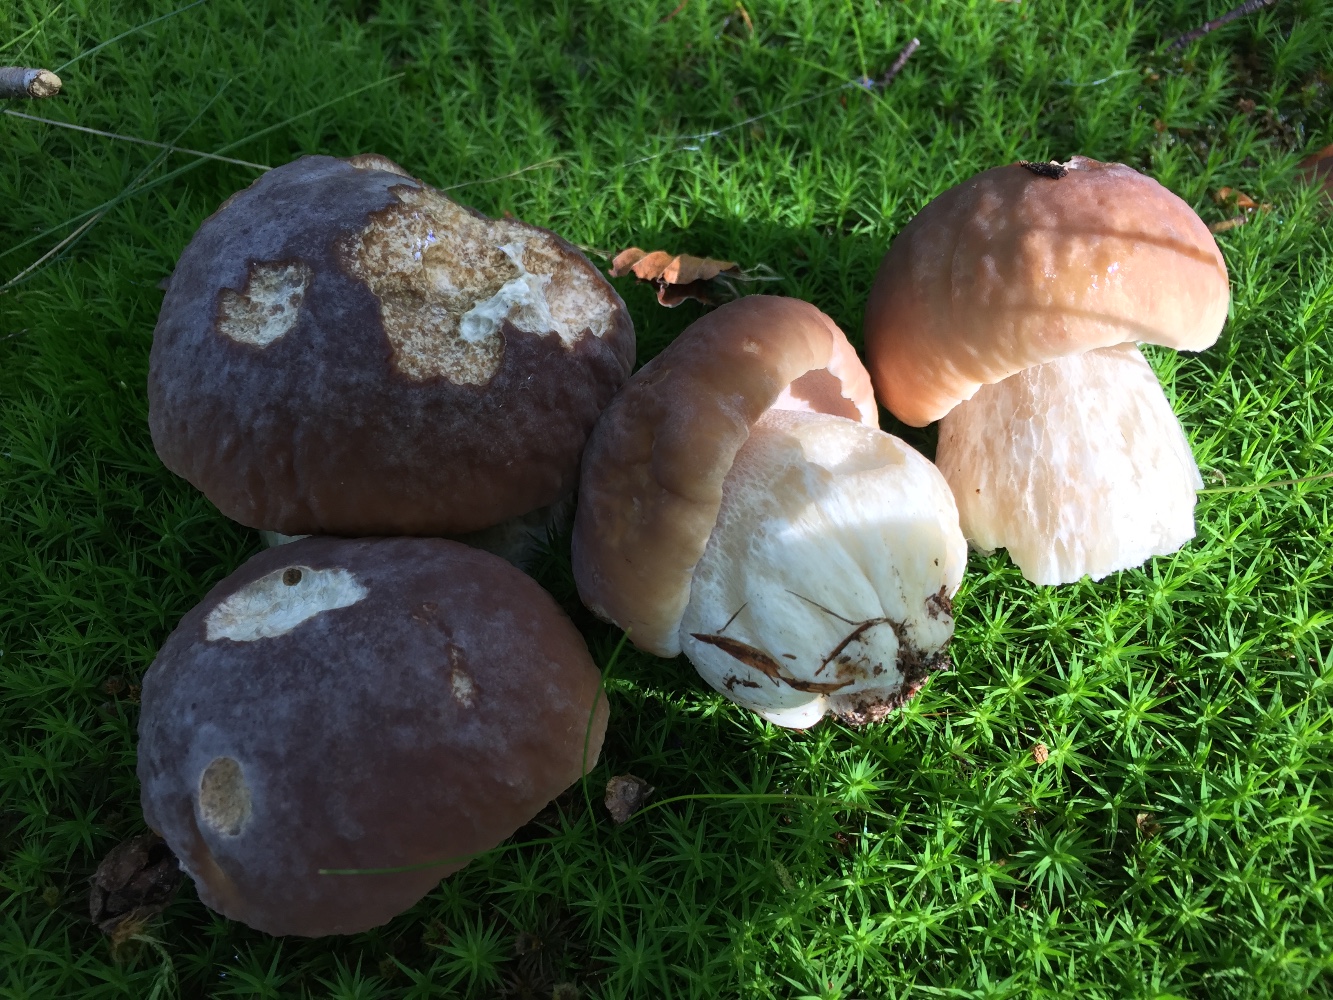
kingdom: Fungi
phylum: Basidiomycota
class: Agaricomycetes
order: Boletales
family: Boletaceae
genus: Boletus
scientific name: Boletus edulis
